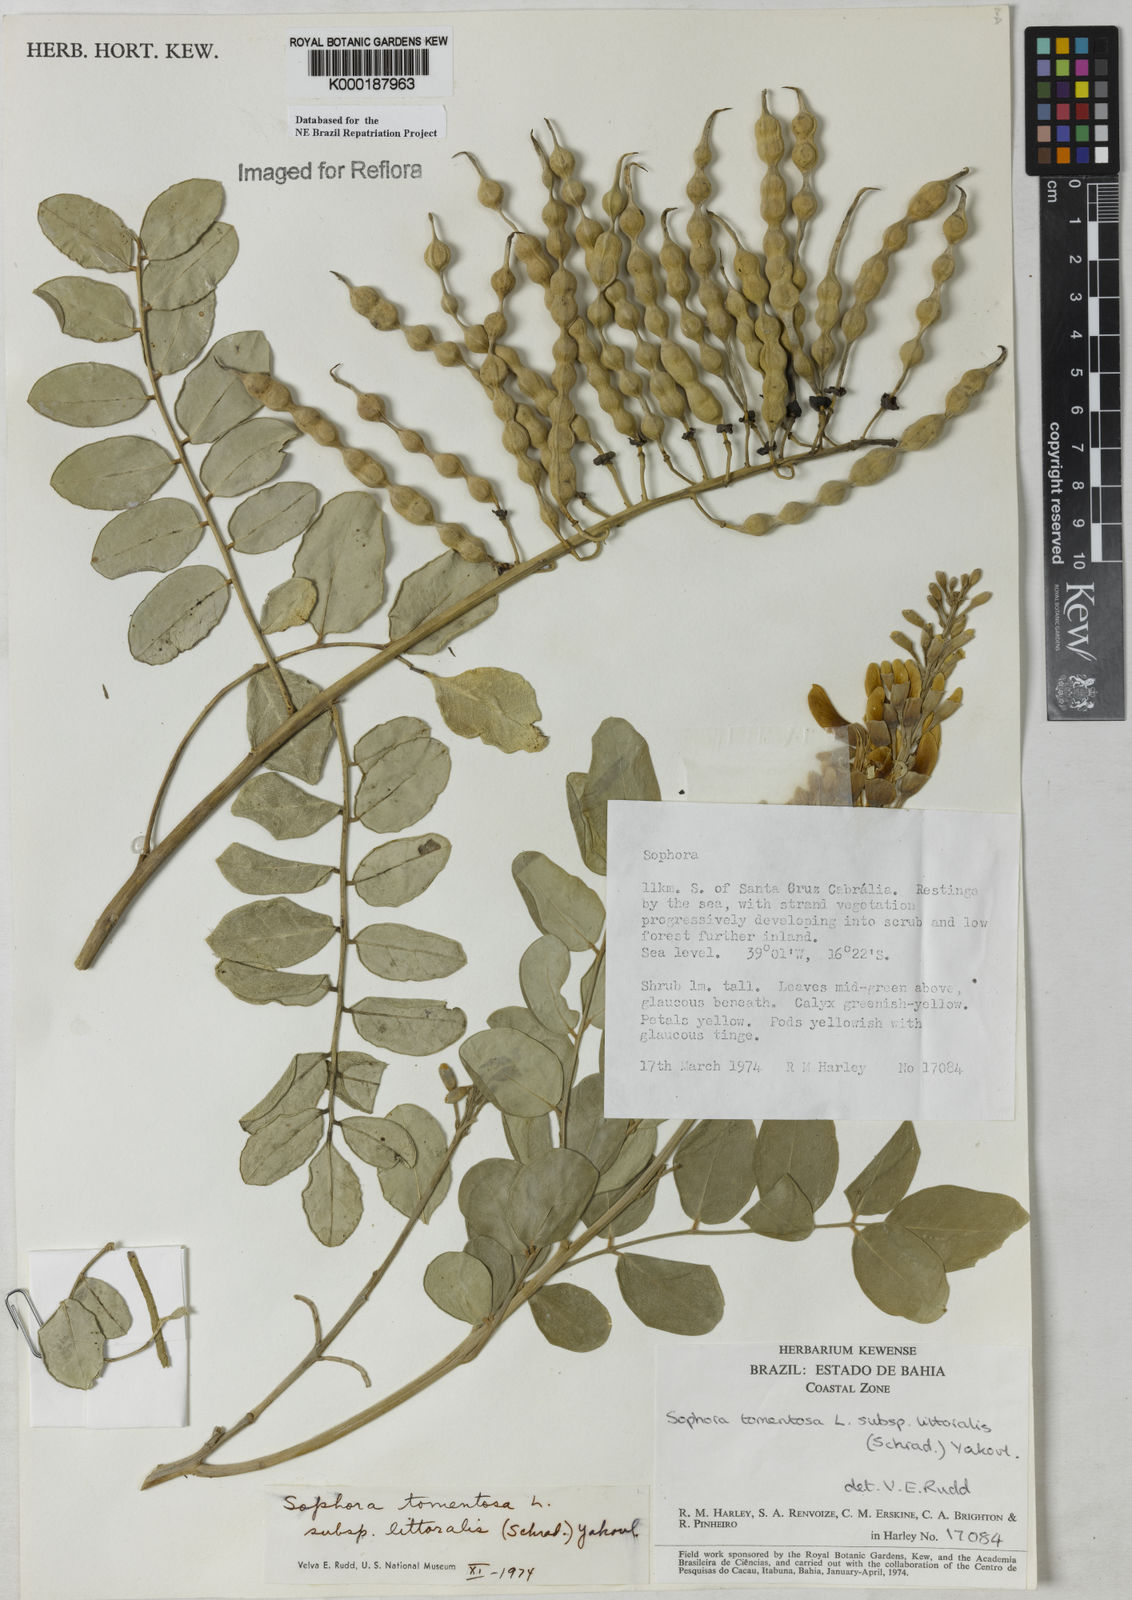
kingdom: Plantae
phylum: Tracheophyta
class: Magnoliopsida
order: Fabales
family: Fabaceae
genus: Sophora
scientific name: Sophora tomentosa
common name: Yellow necklacepod
